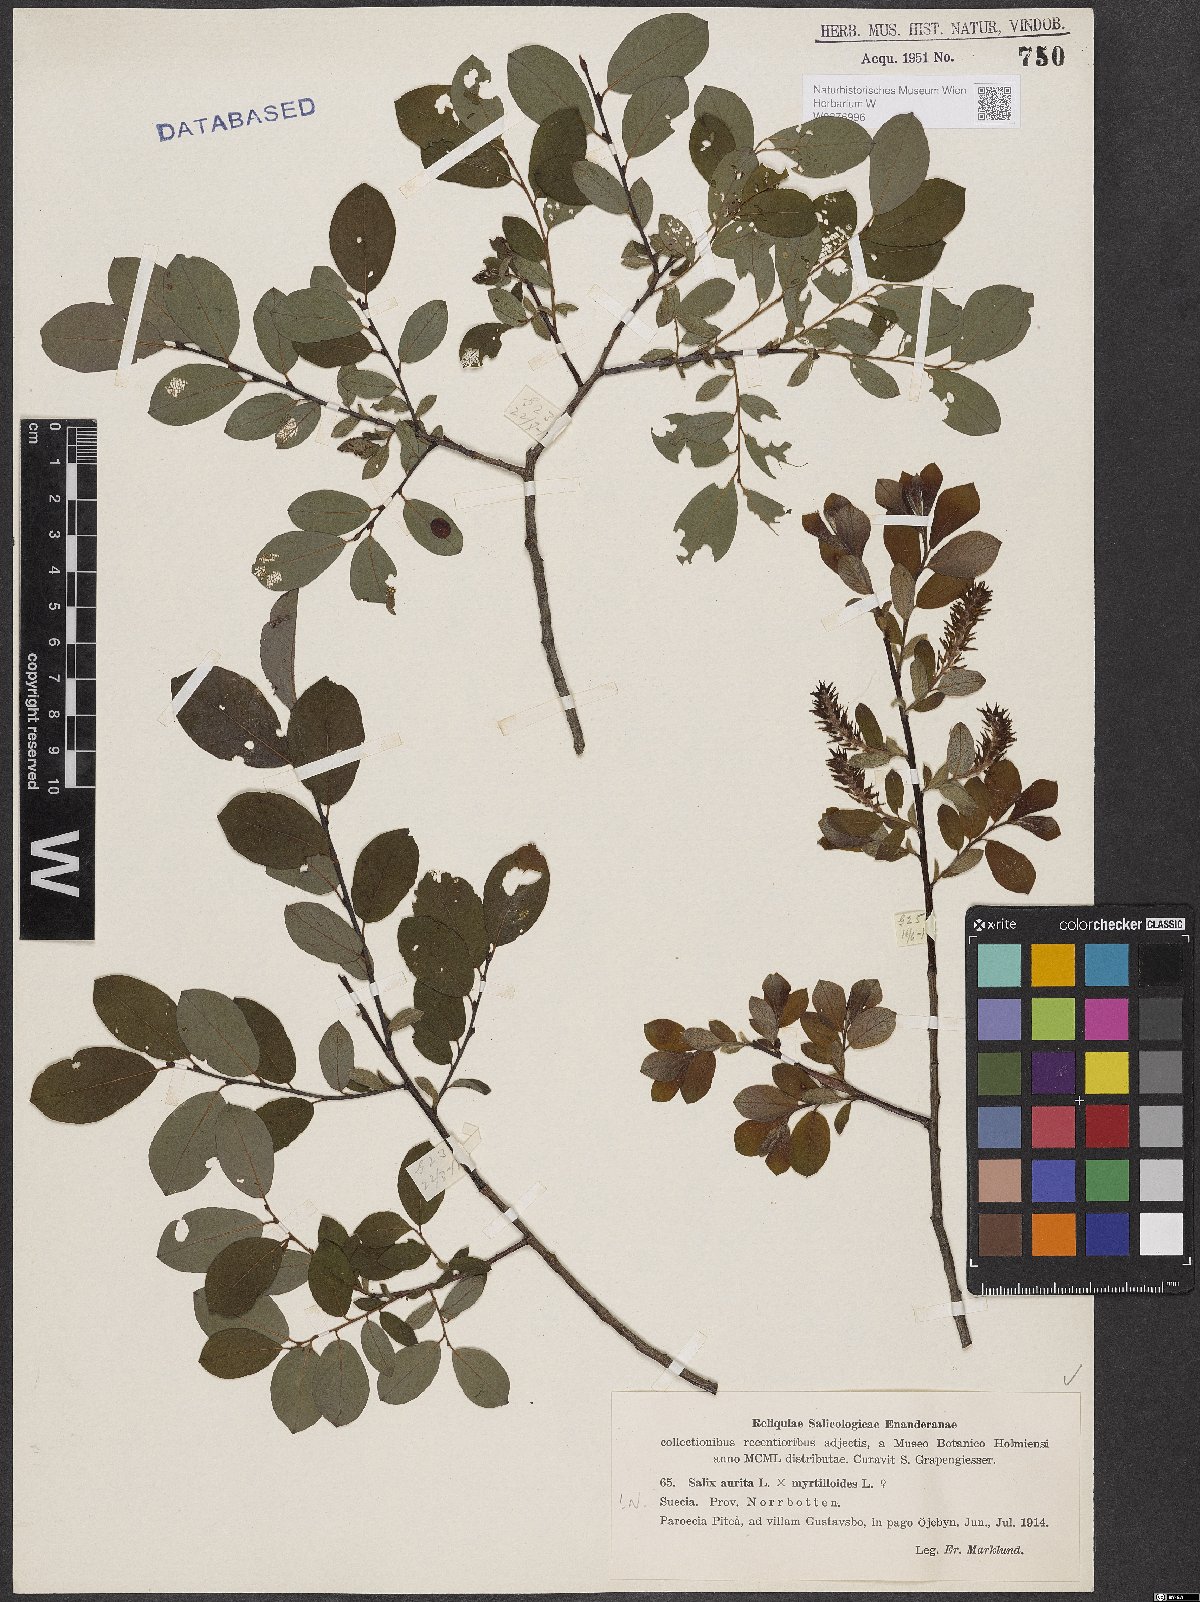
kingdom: Plantae
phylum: Tracheophyta
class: Magnoliopsida
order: Malpighiales
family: Salicaceae
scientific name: Salicaceae
